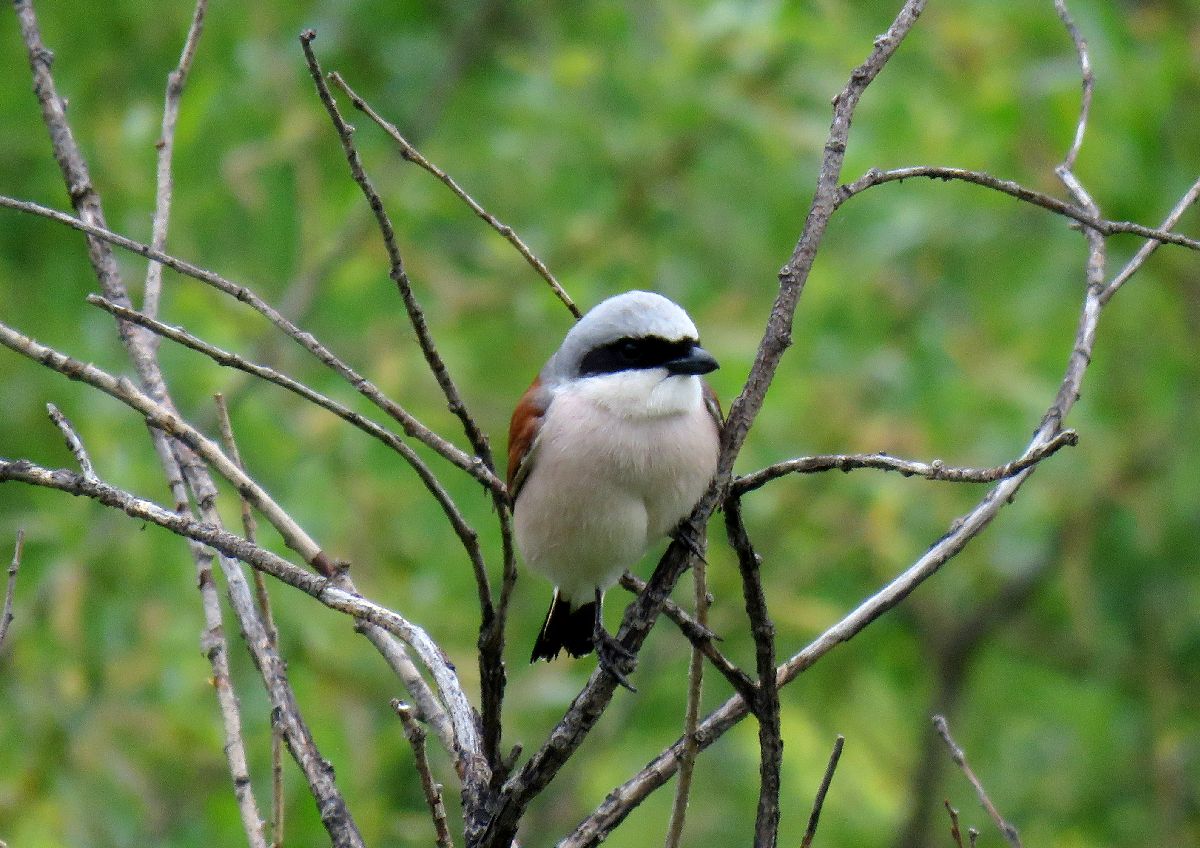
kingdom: Animalia
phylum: Chordata
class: Aves
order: Passeriformes
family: Laniidae
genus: Lanius
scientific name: Lanius collurio
